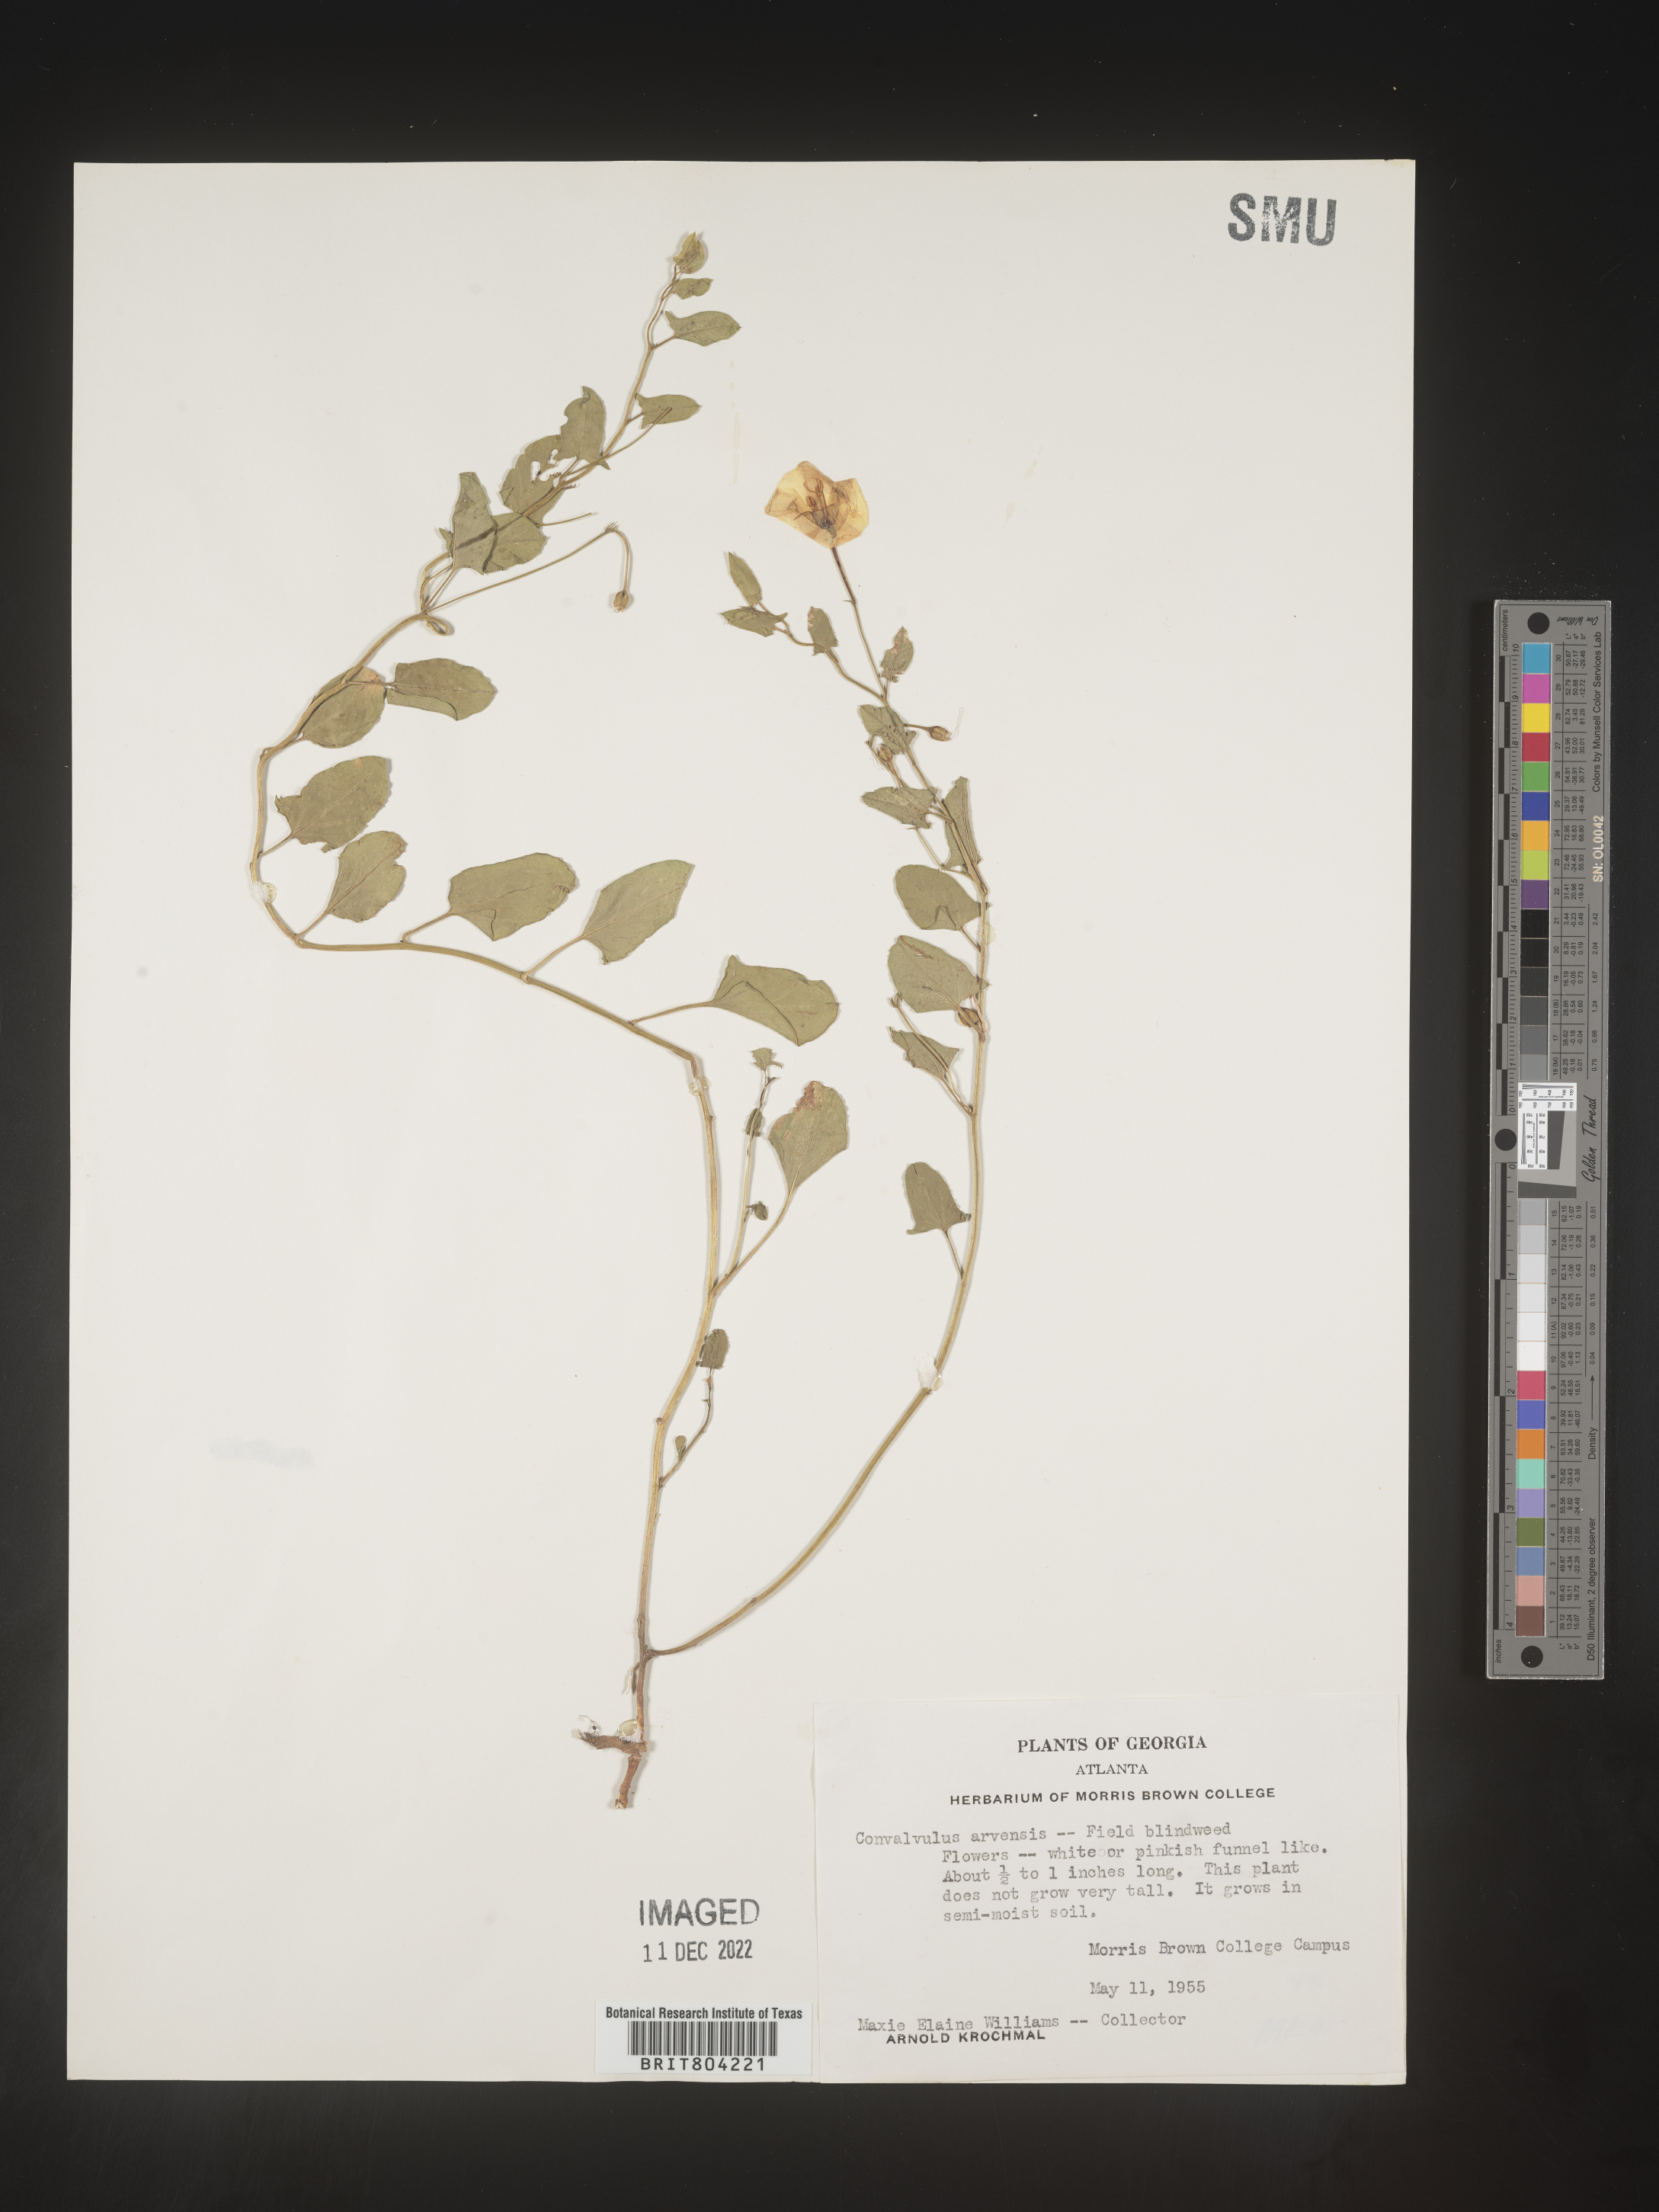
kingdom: Plantae
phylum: Tracheophyta
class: Magnoliopsida
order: Solanales
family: Convolvulaceae
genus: Convolvulus
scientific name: Convolvulus arvensis
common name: Field bindweed
